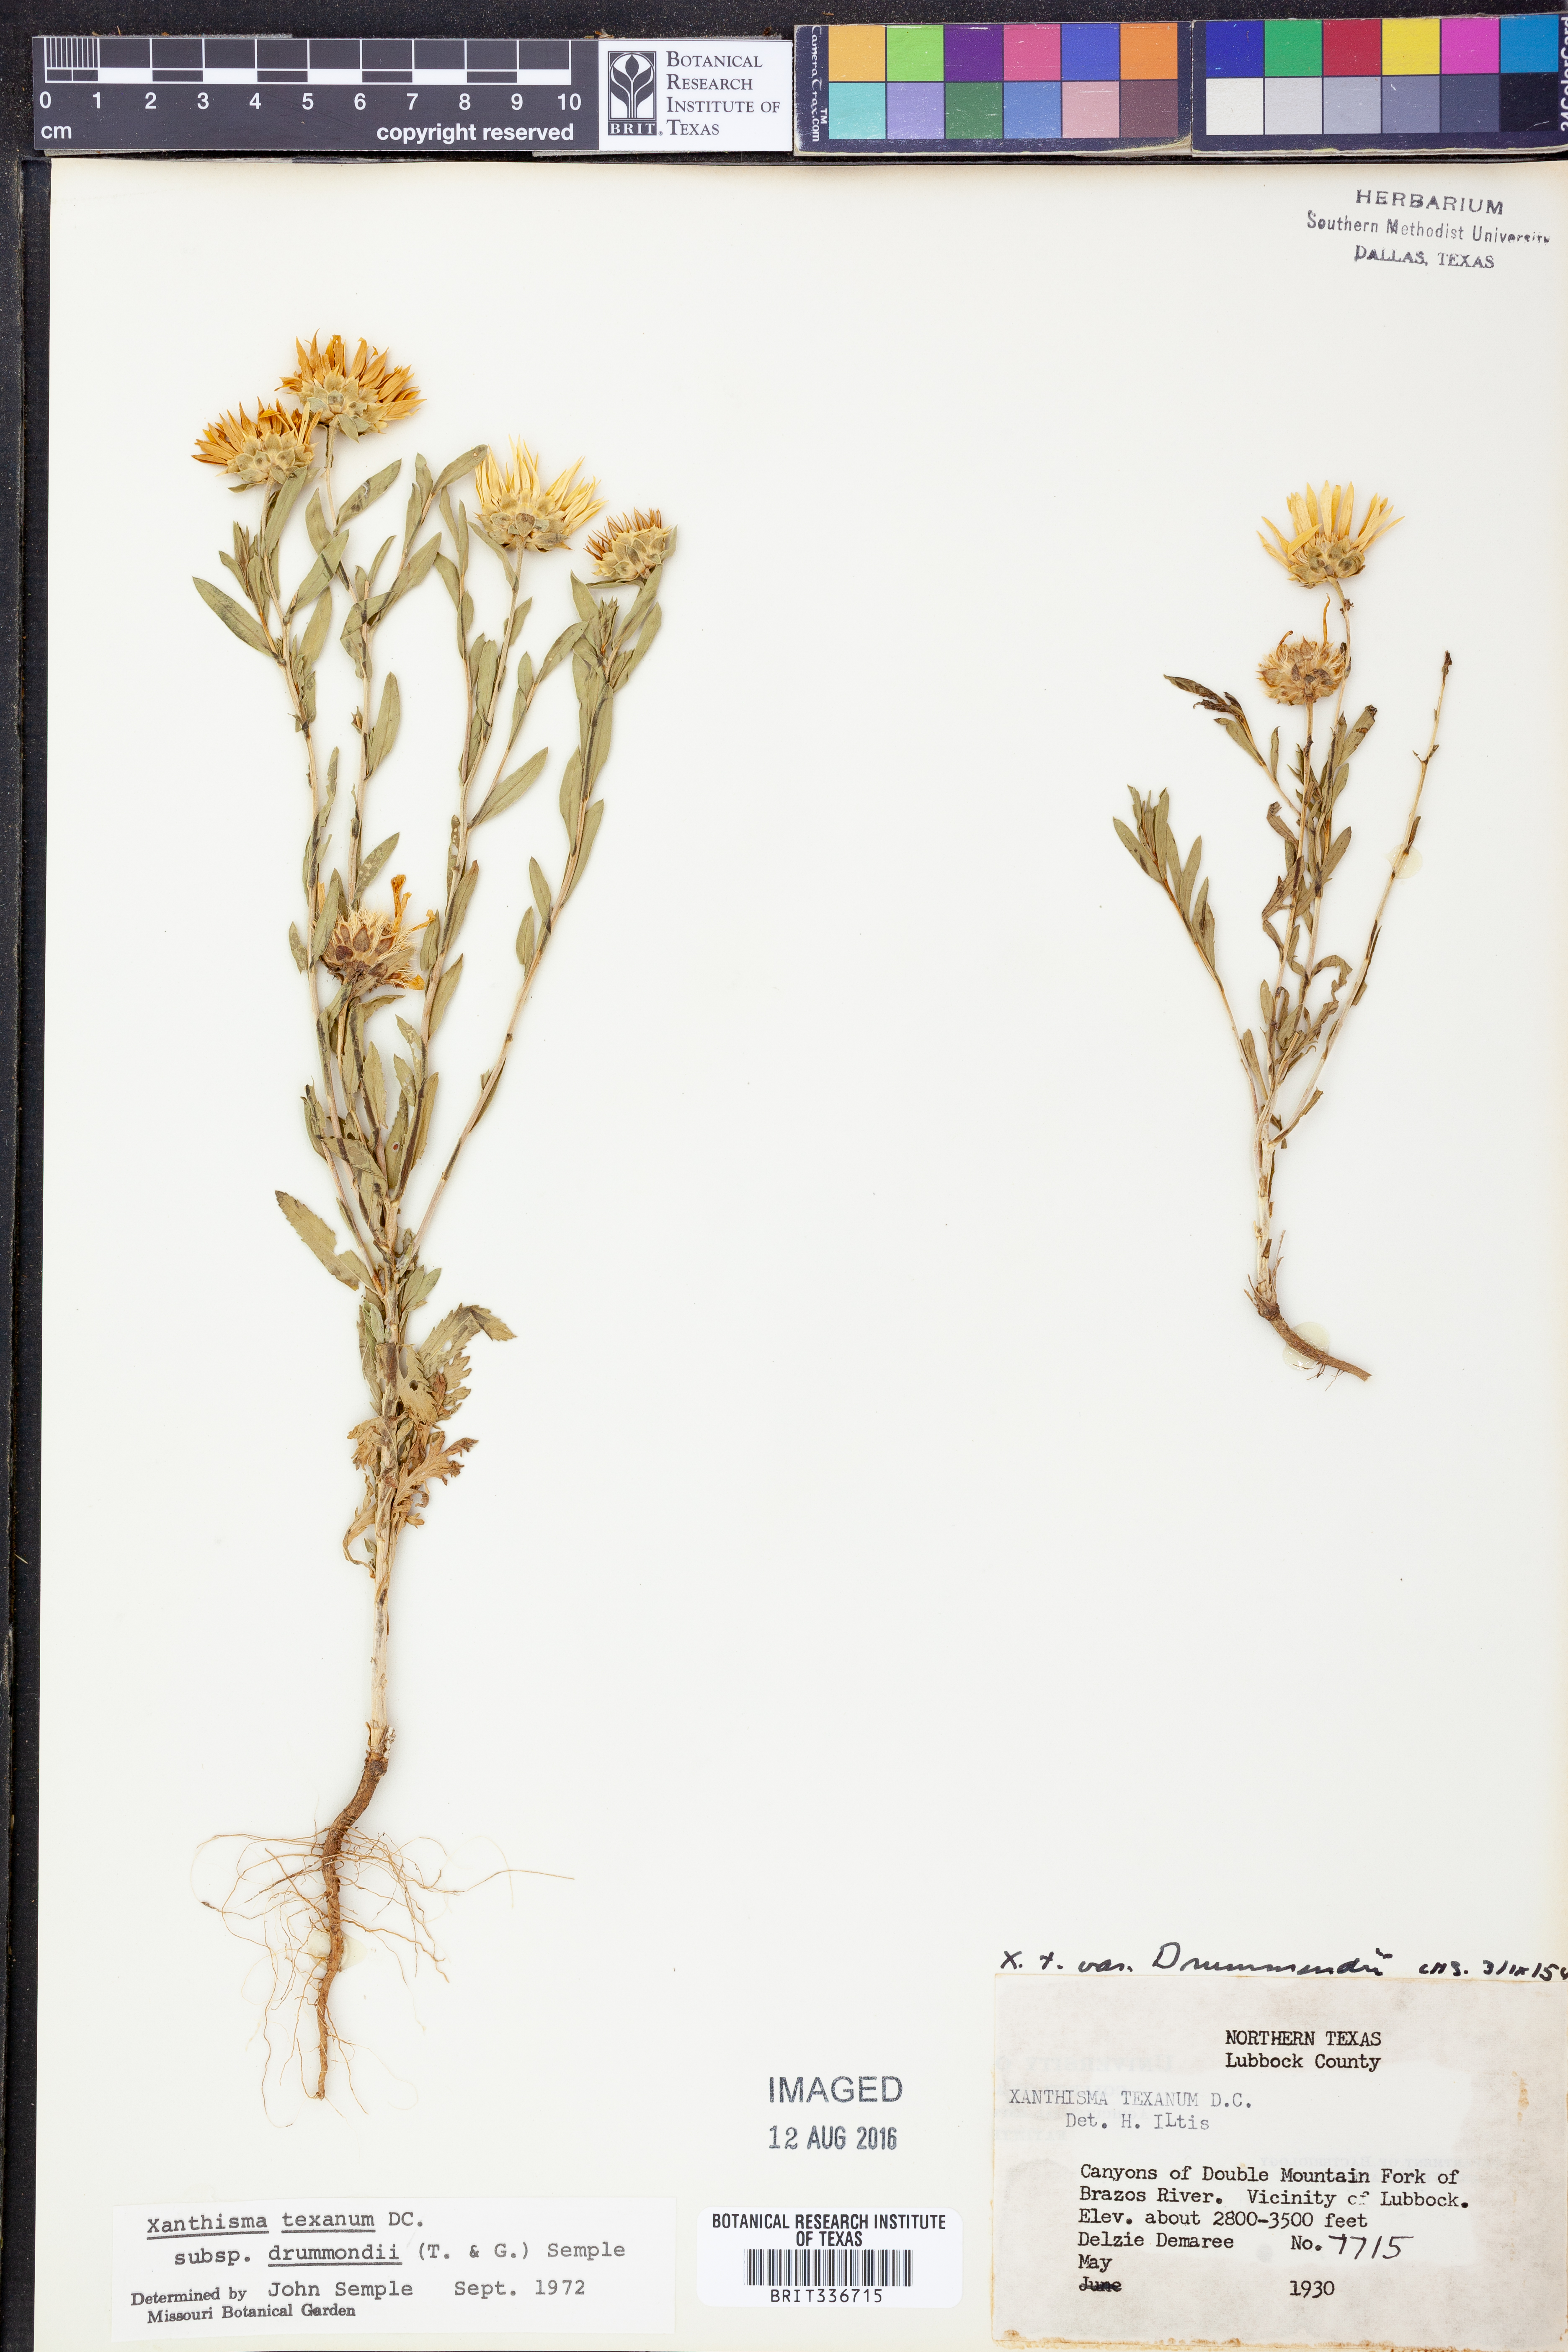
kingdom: Plantae
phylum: Tracheophyta
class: Magnoliopsida
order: Asterales
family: Asteraceae
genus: Xanthisma
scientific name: Xanthisma texanum
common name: Texas sleepy daisy
